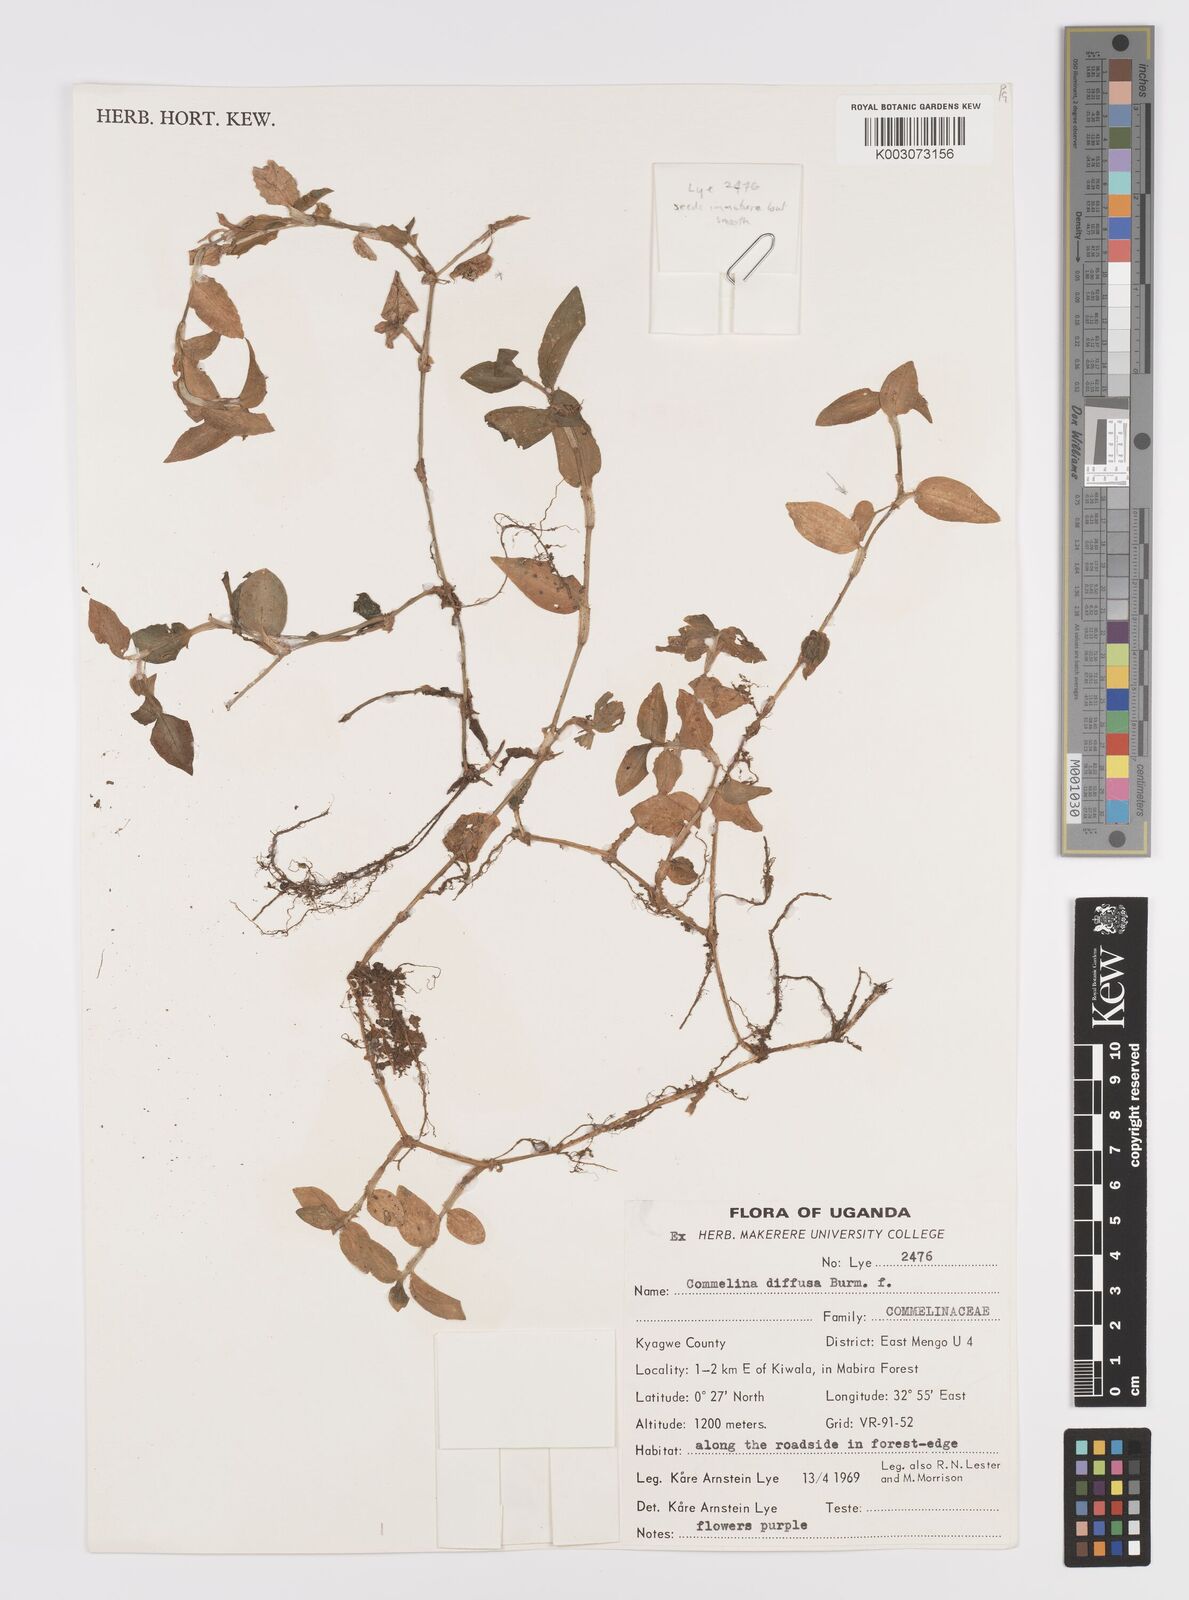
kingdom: Plantae
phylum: Tracheophyta
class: Liliopsida
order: Commelinales
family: Commelinaceae
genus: Commelina
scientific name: Commelina diffusa
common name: Climbing dayflower
